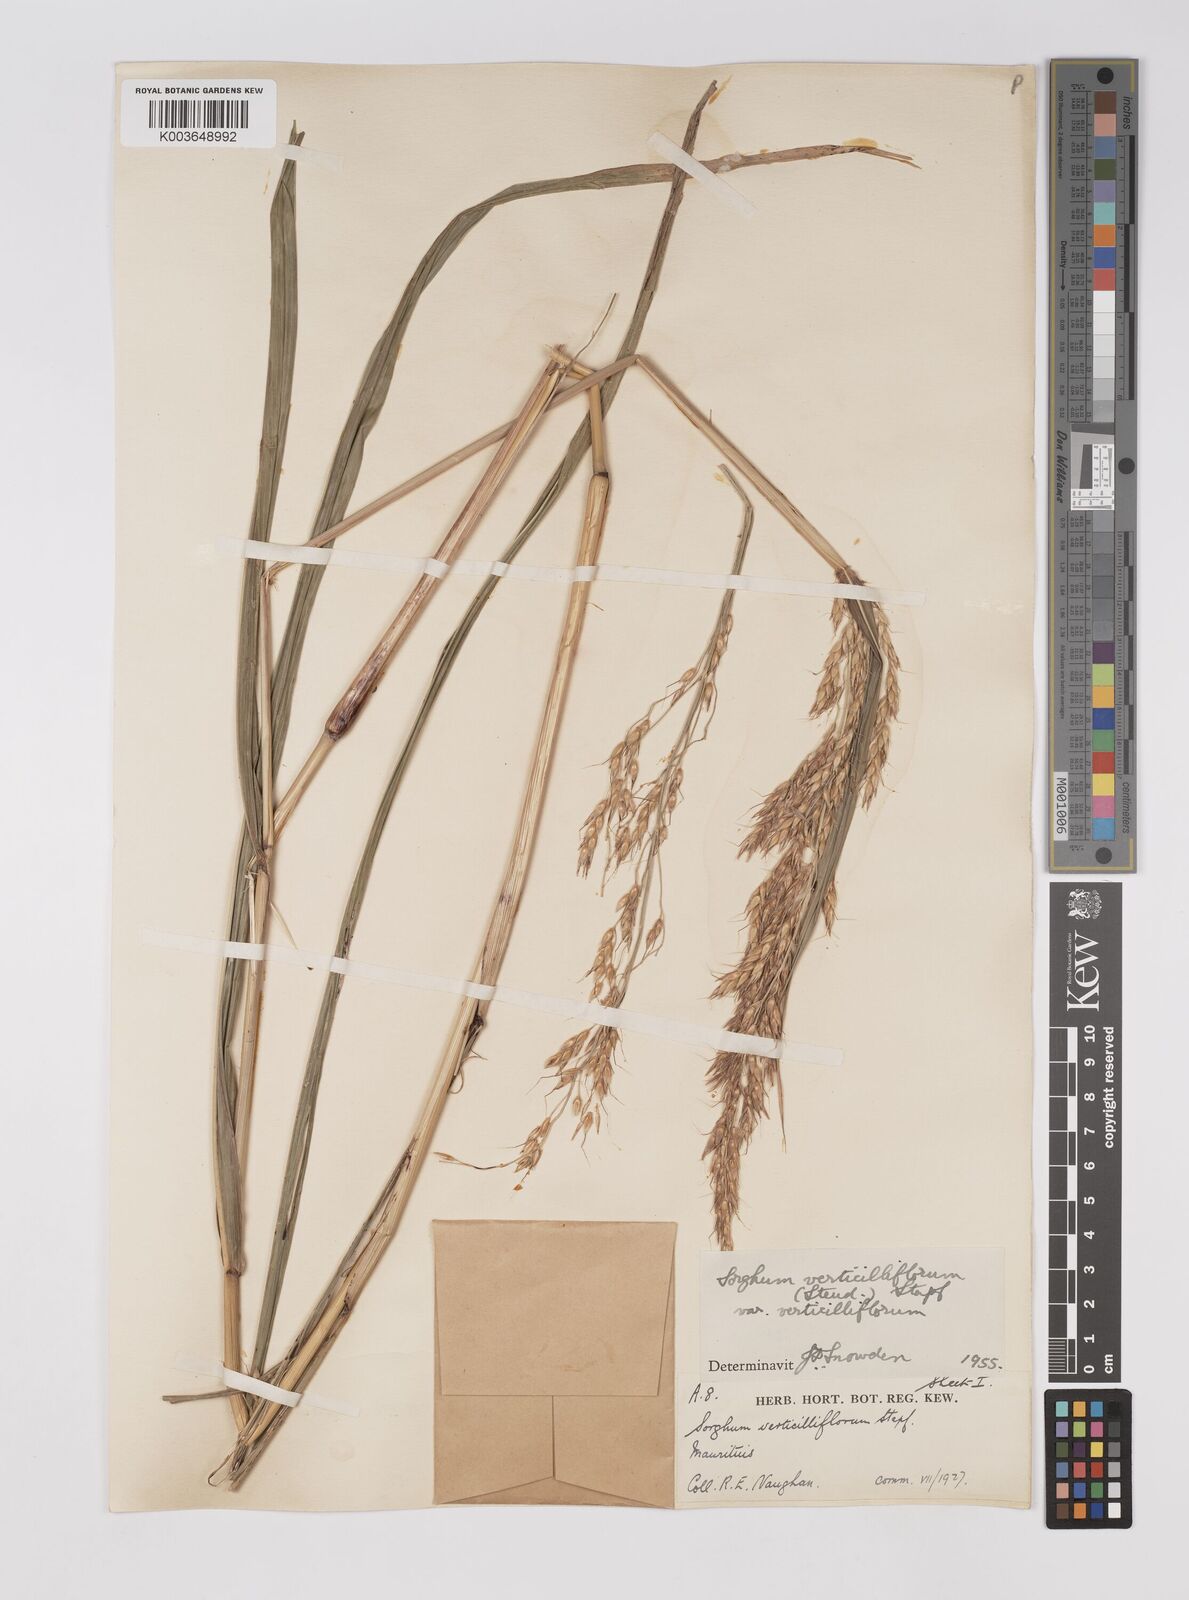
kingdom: Plantae
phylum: Tracheophyta
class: Liliopsida
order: Poales
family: Poaceae
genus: Sorghum
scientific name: Sorghum arundinaceum
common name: Sorghum
